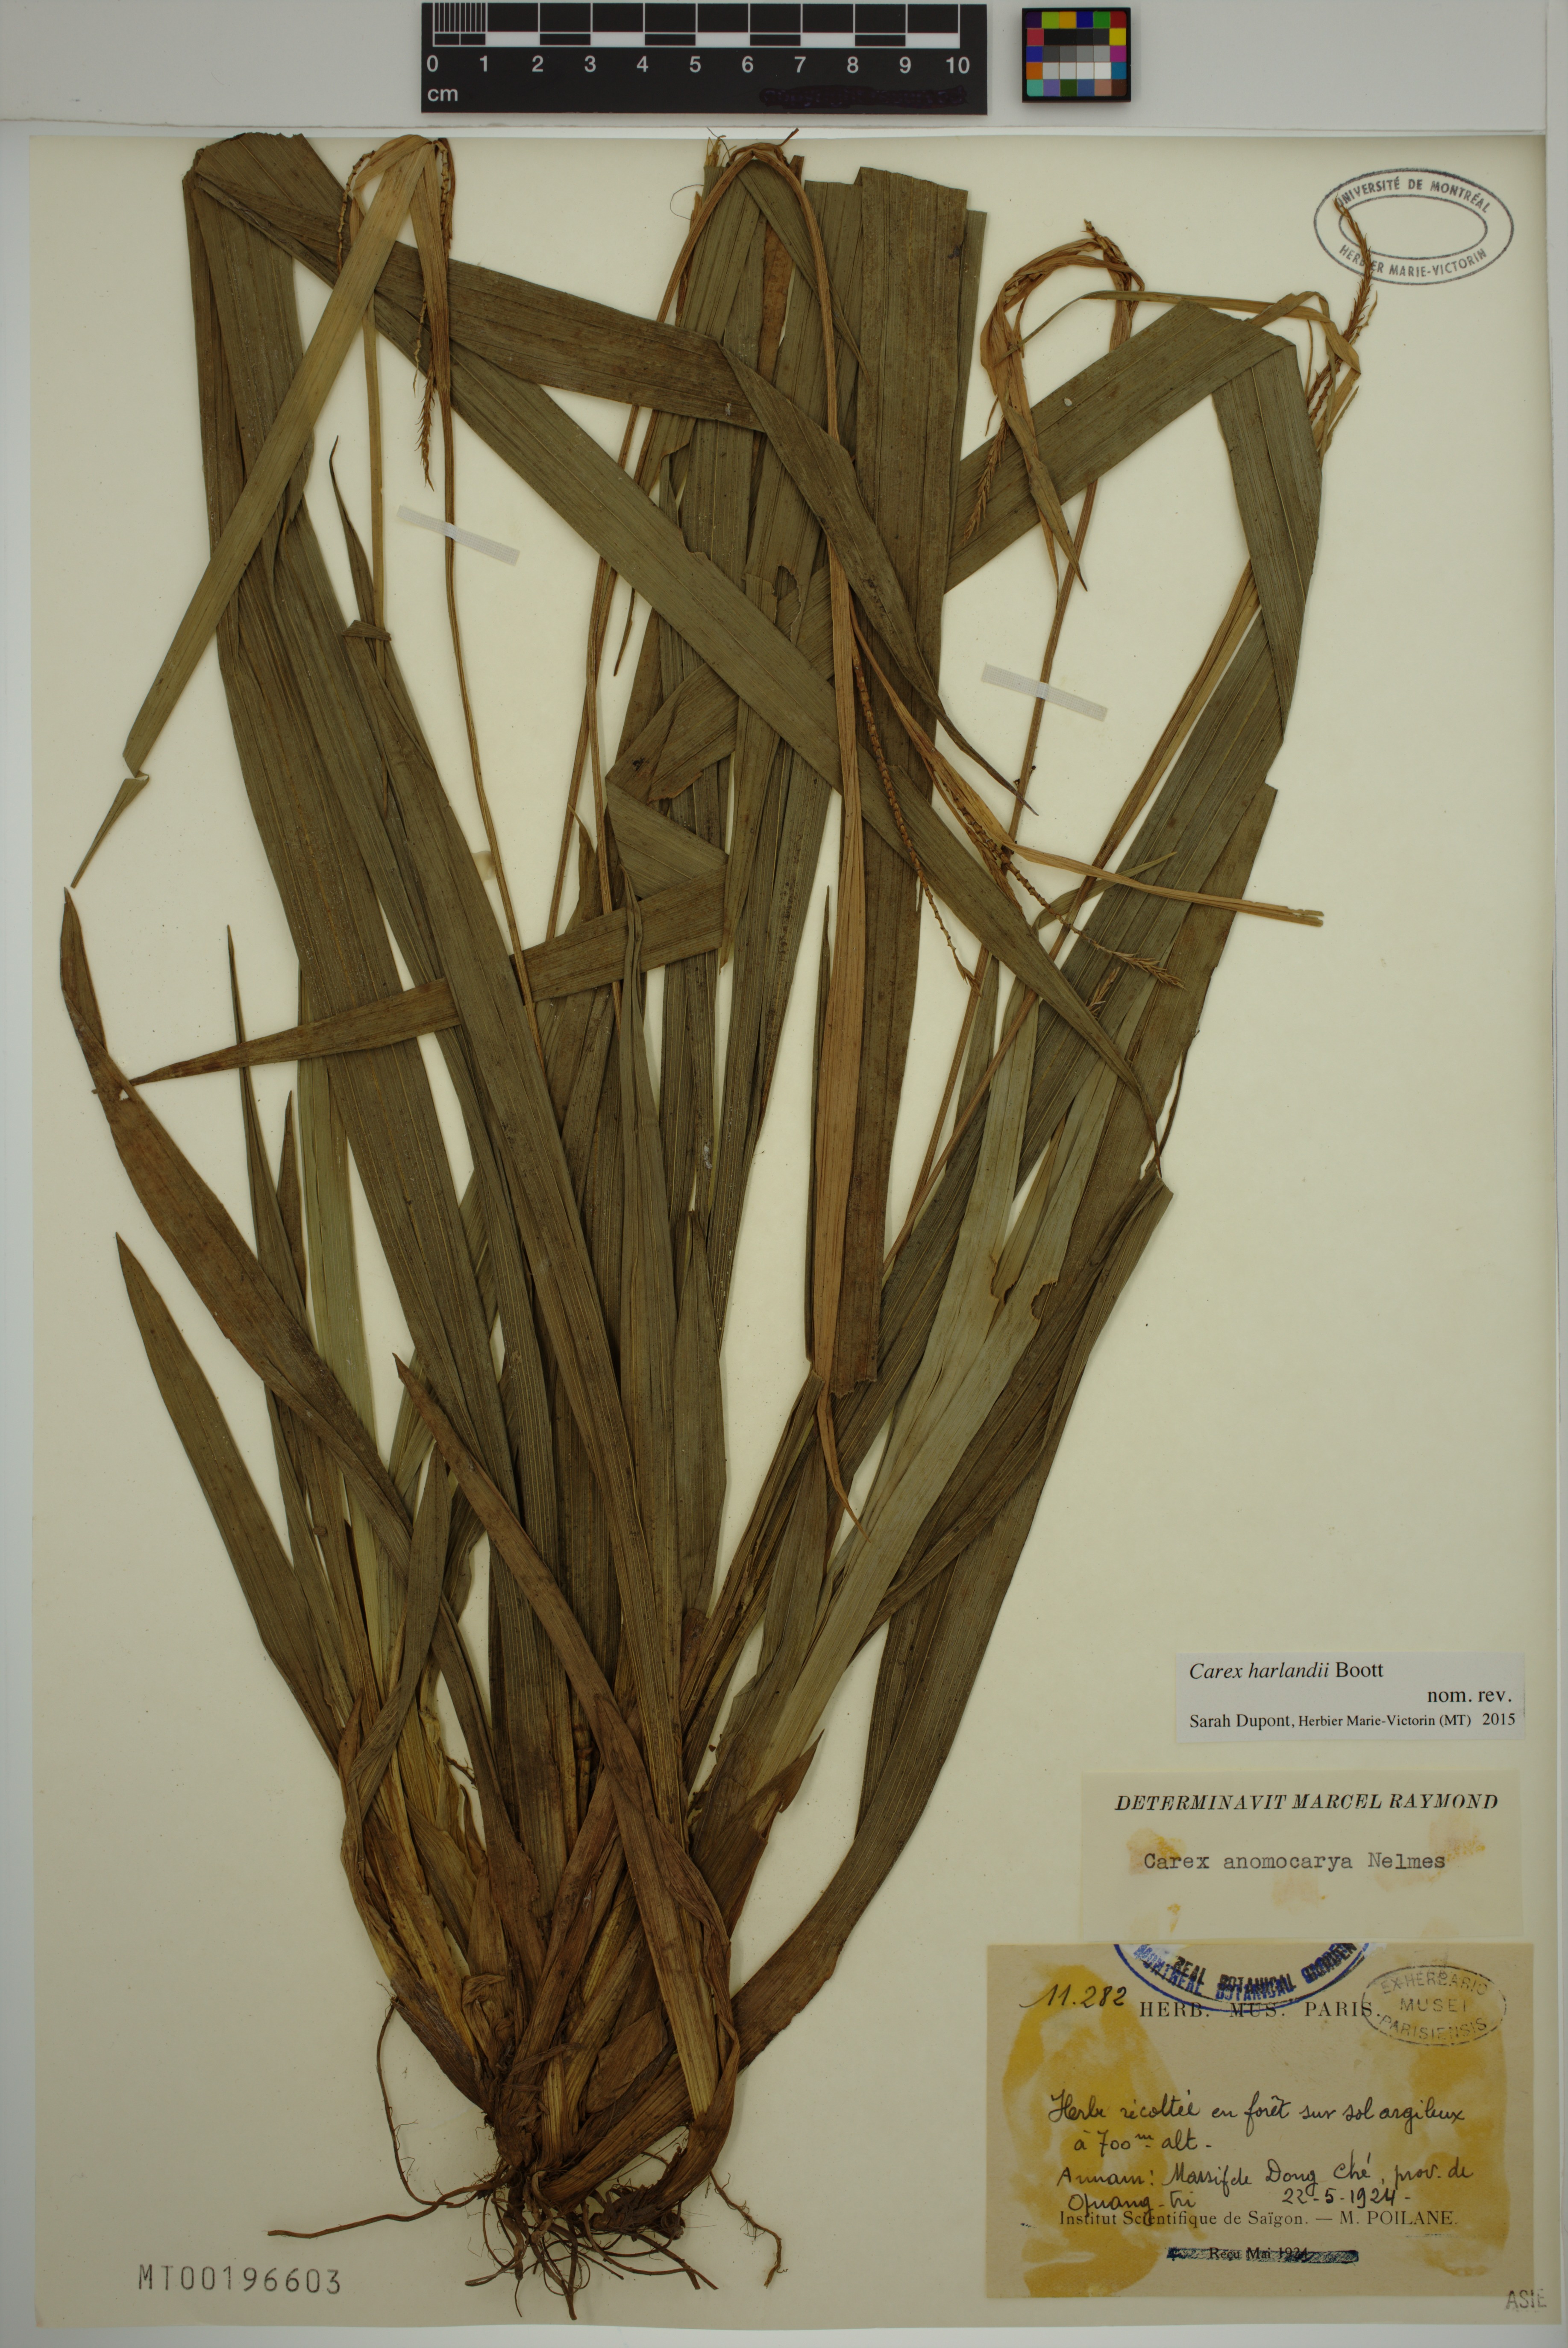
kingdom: Plantae
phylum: Tracheophyta
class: Liliopsida
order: Poales
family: Cyperaceae
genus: Carex
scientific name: Carex harlandii
